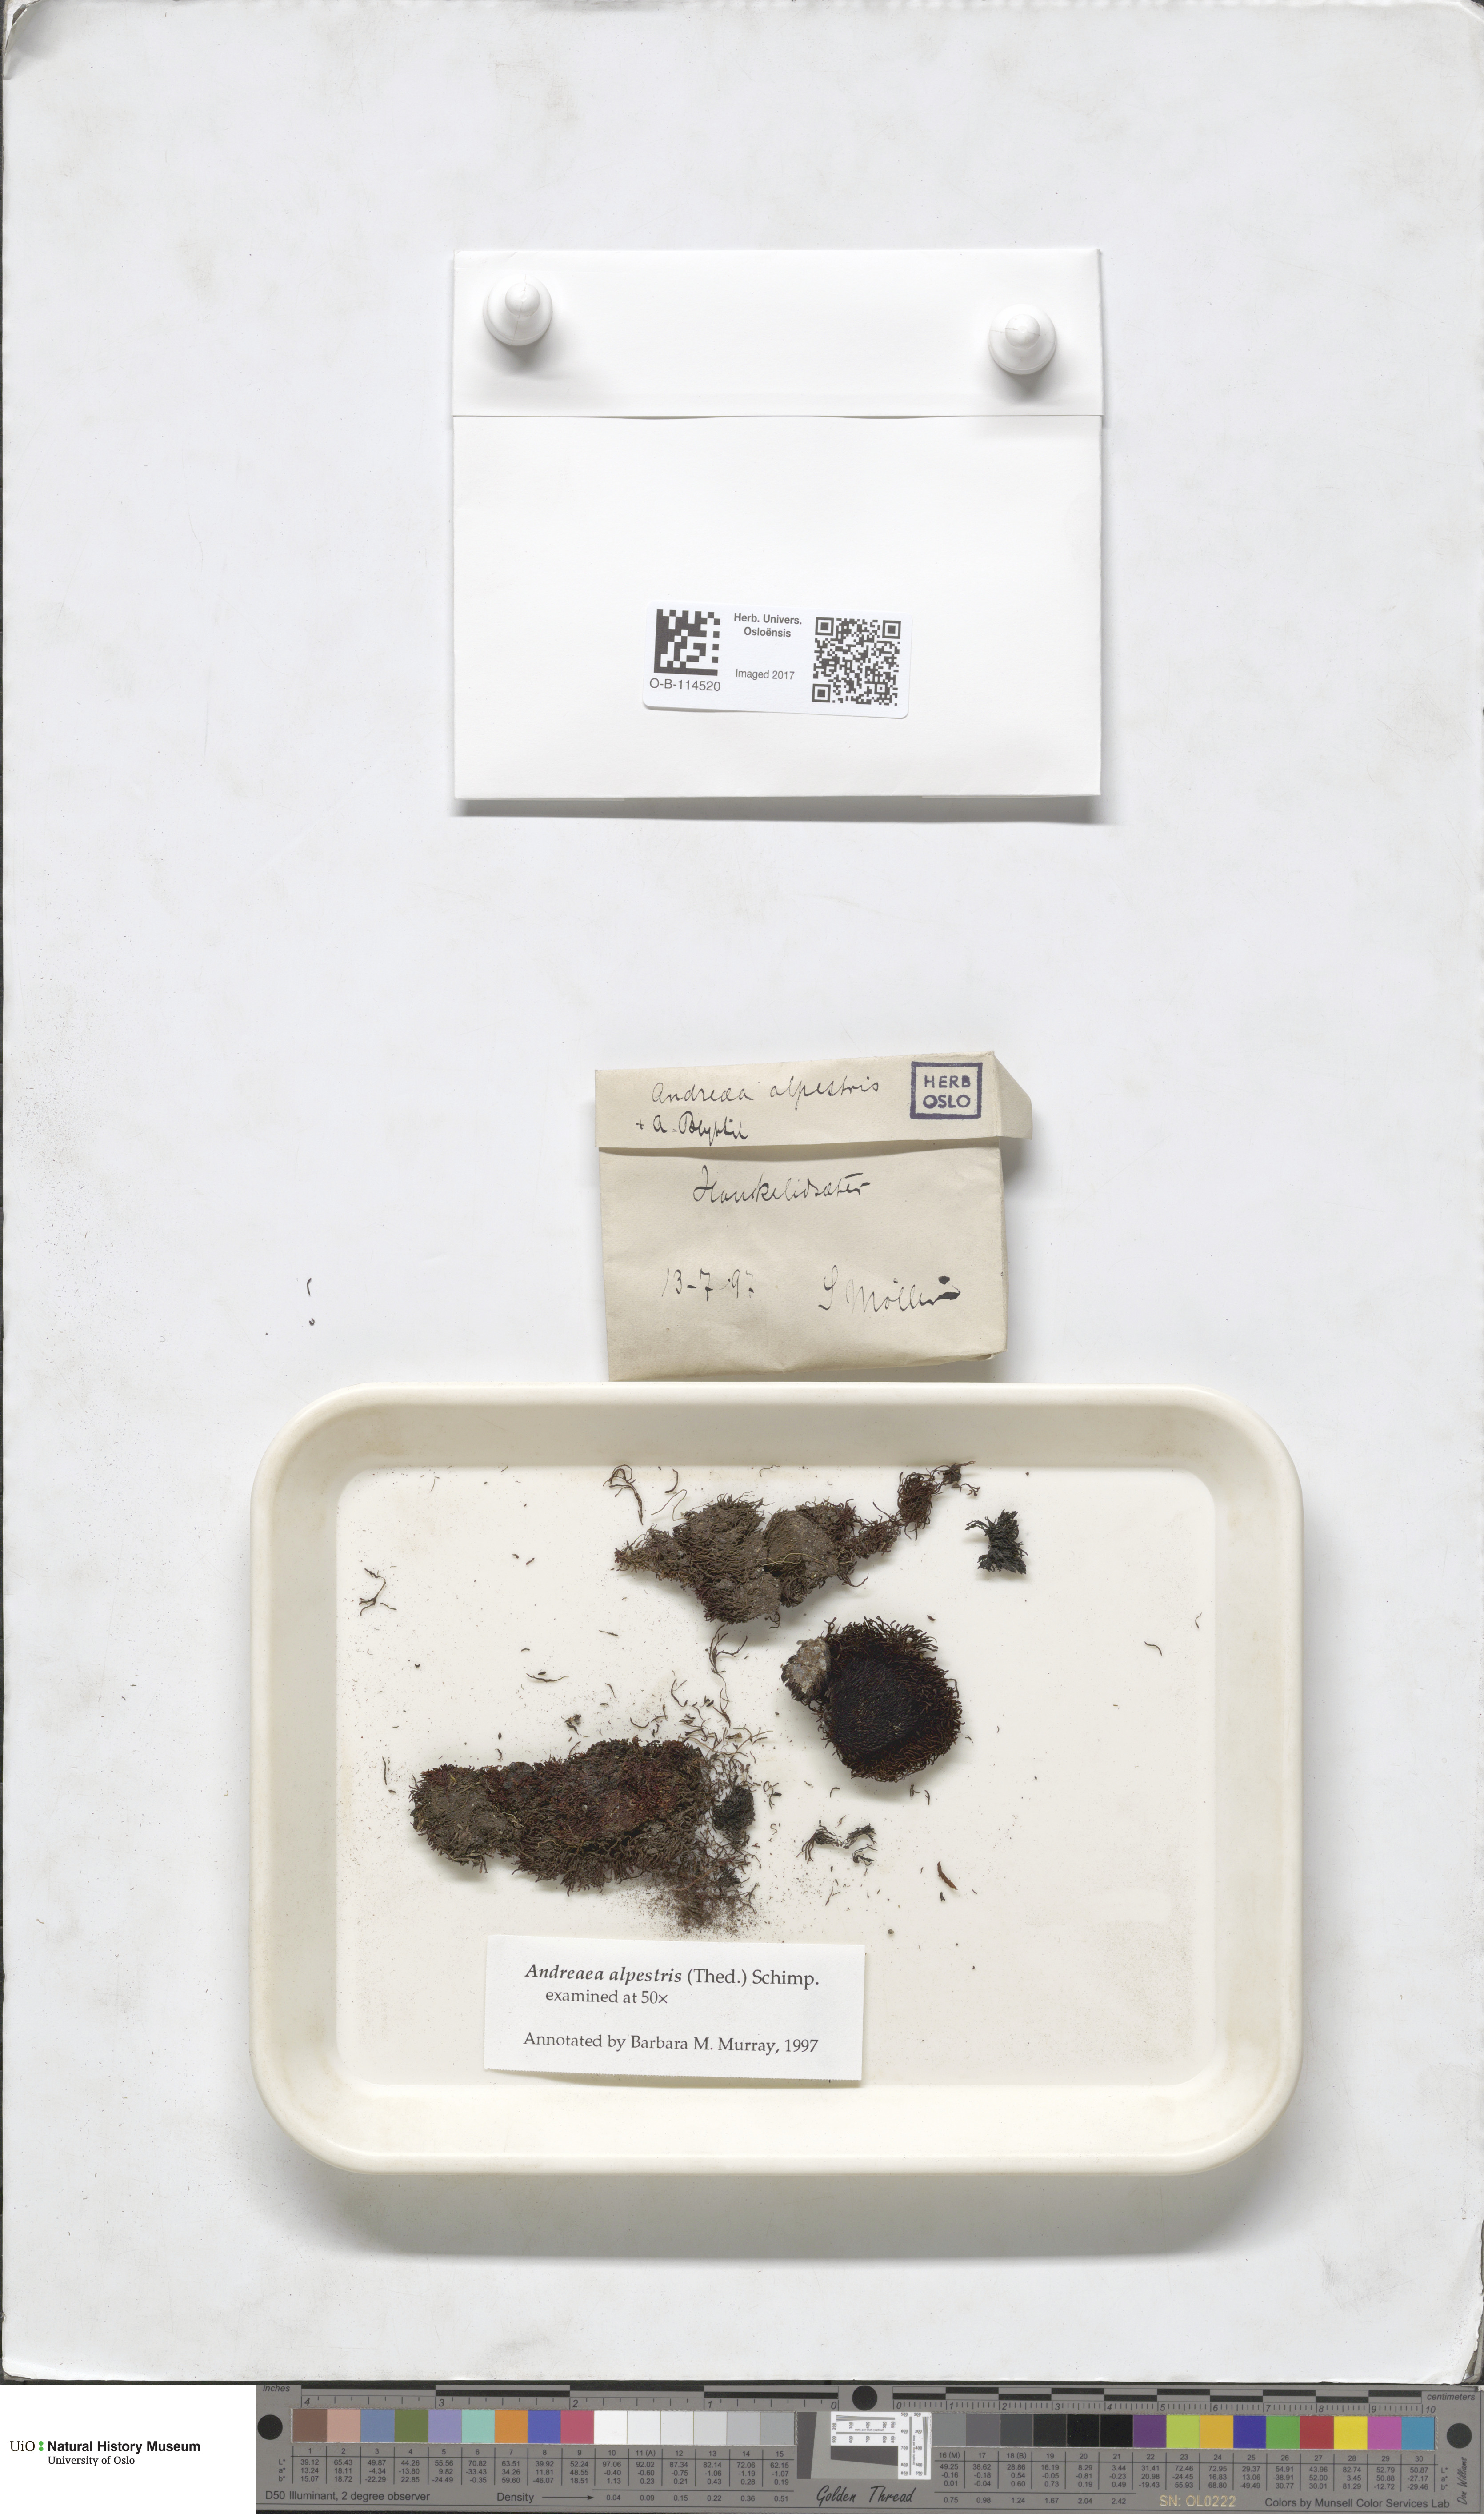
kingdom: Plantae
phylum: Bryophyta
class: Andreaeopsida
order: Andreaeales
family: Andreaeaceae
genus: Andreaea
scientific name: Andreaea alpestris
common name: Slender rock-moss
